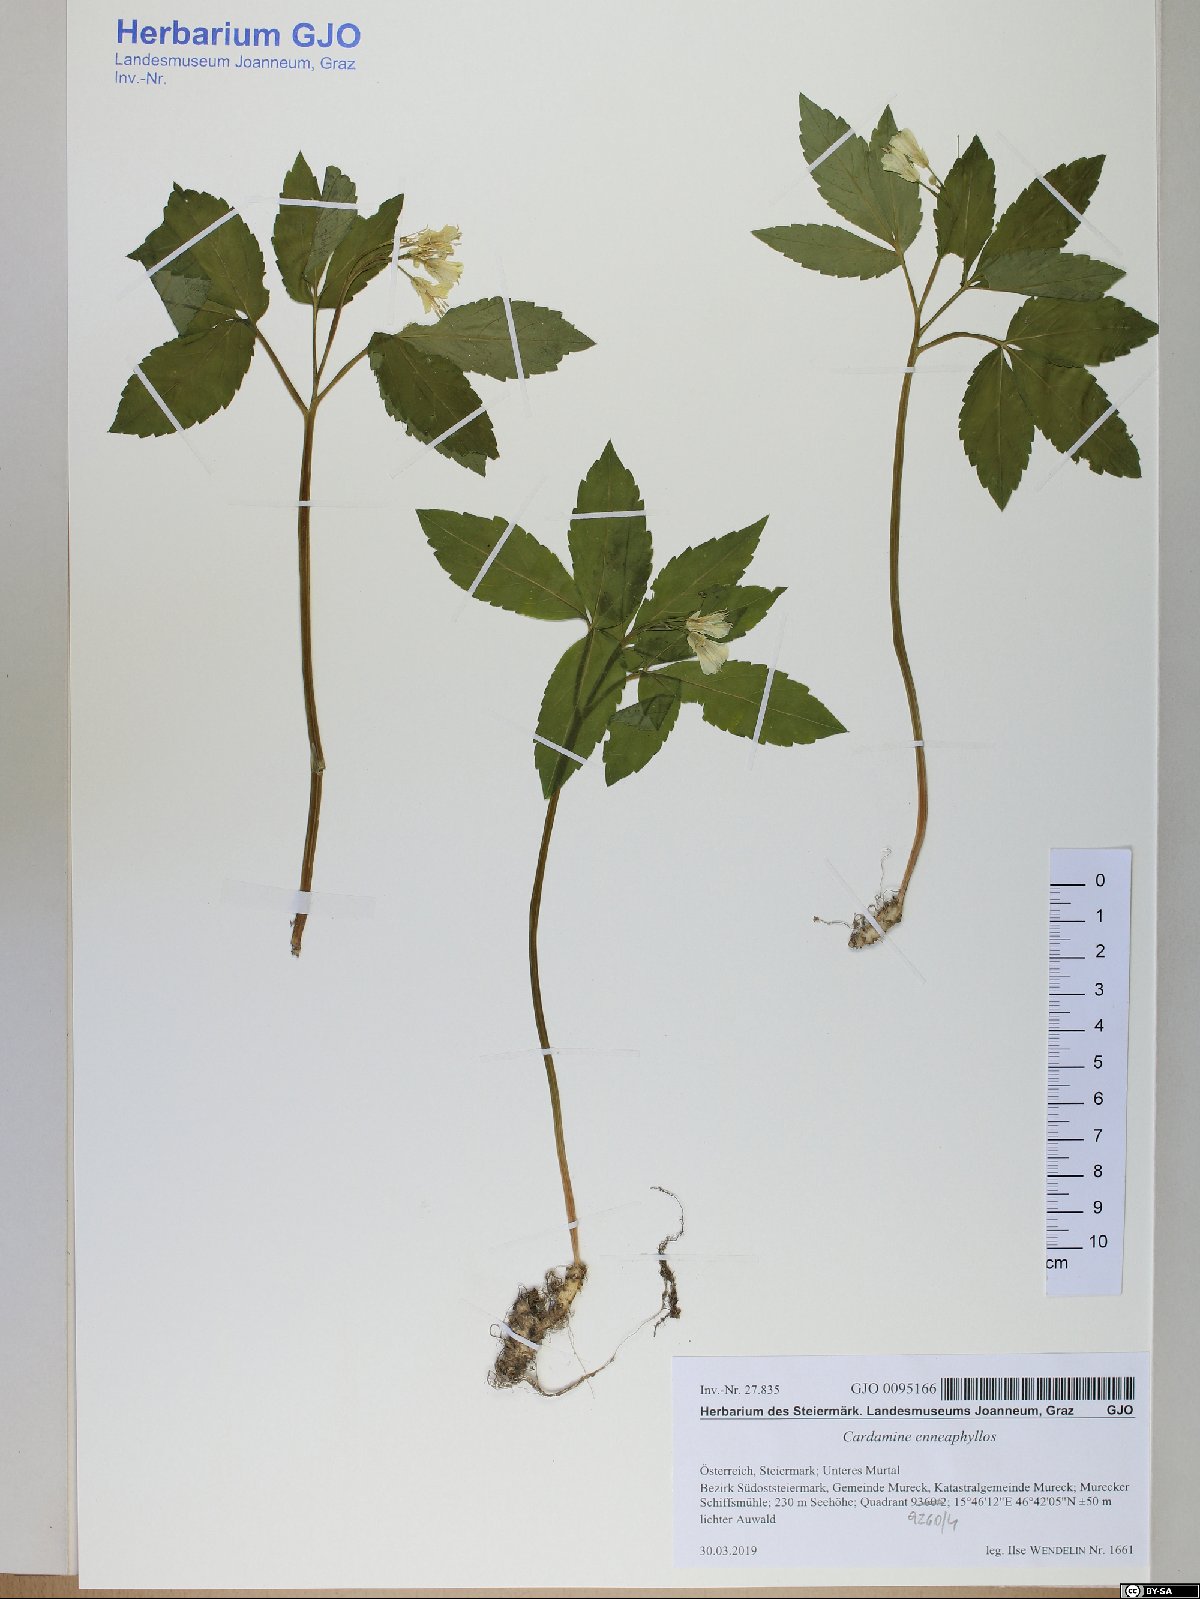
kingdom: Plantae
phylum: Tracheophyta
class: Magnoliopsida
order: Brassicales
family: Brassicaceae
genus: Cardamine
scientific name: Cardamine enneaphyllos
